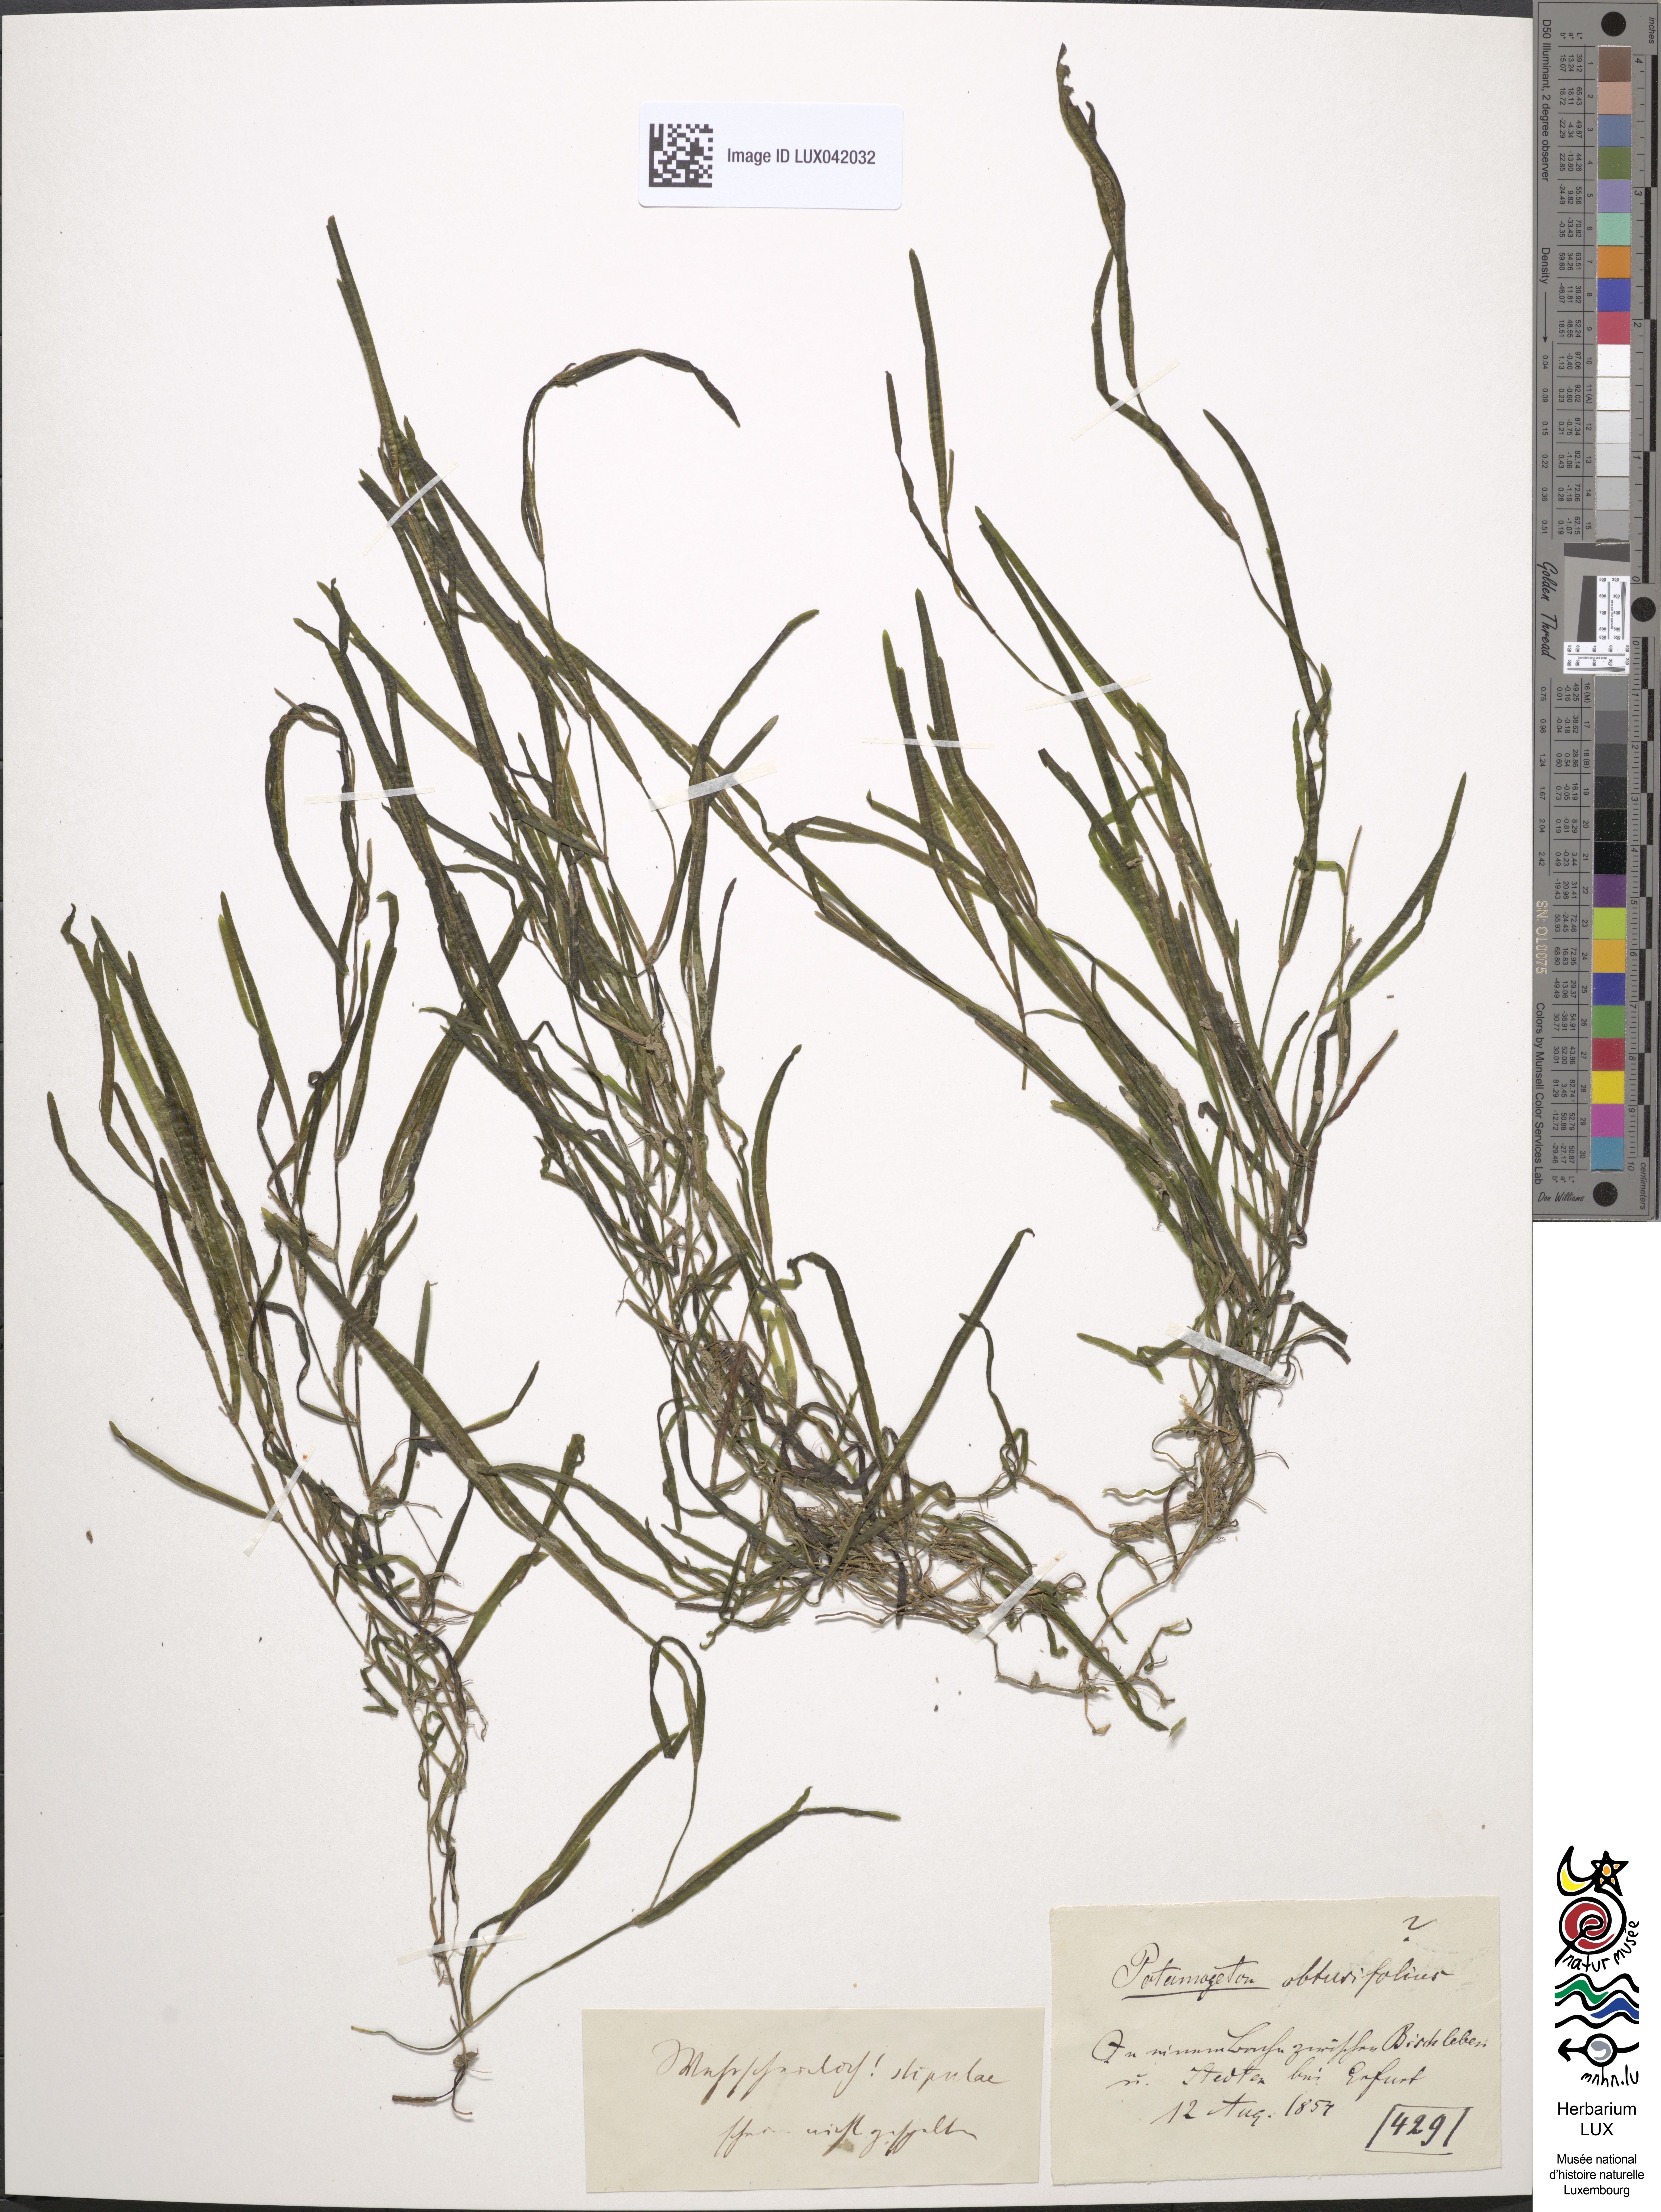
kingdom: Plantae
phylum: Tracheophyta
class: Liliopsida
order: Alismatales
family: Potamogetonaceae
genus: Potamogeton
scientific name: Potamogeton obtusifolius
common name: Blunt-leaved pondweed
